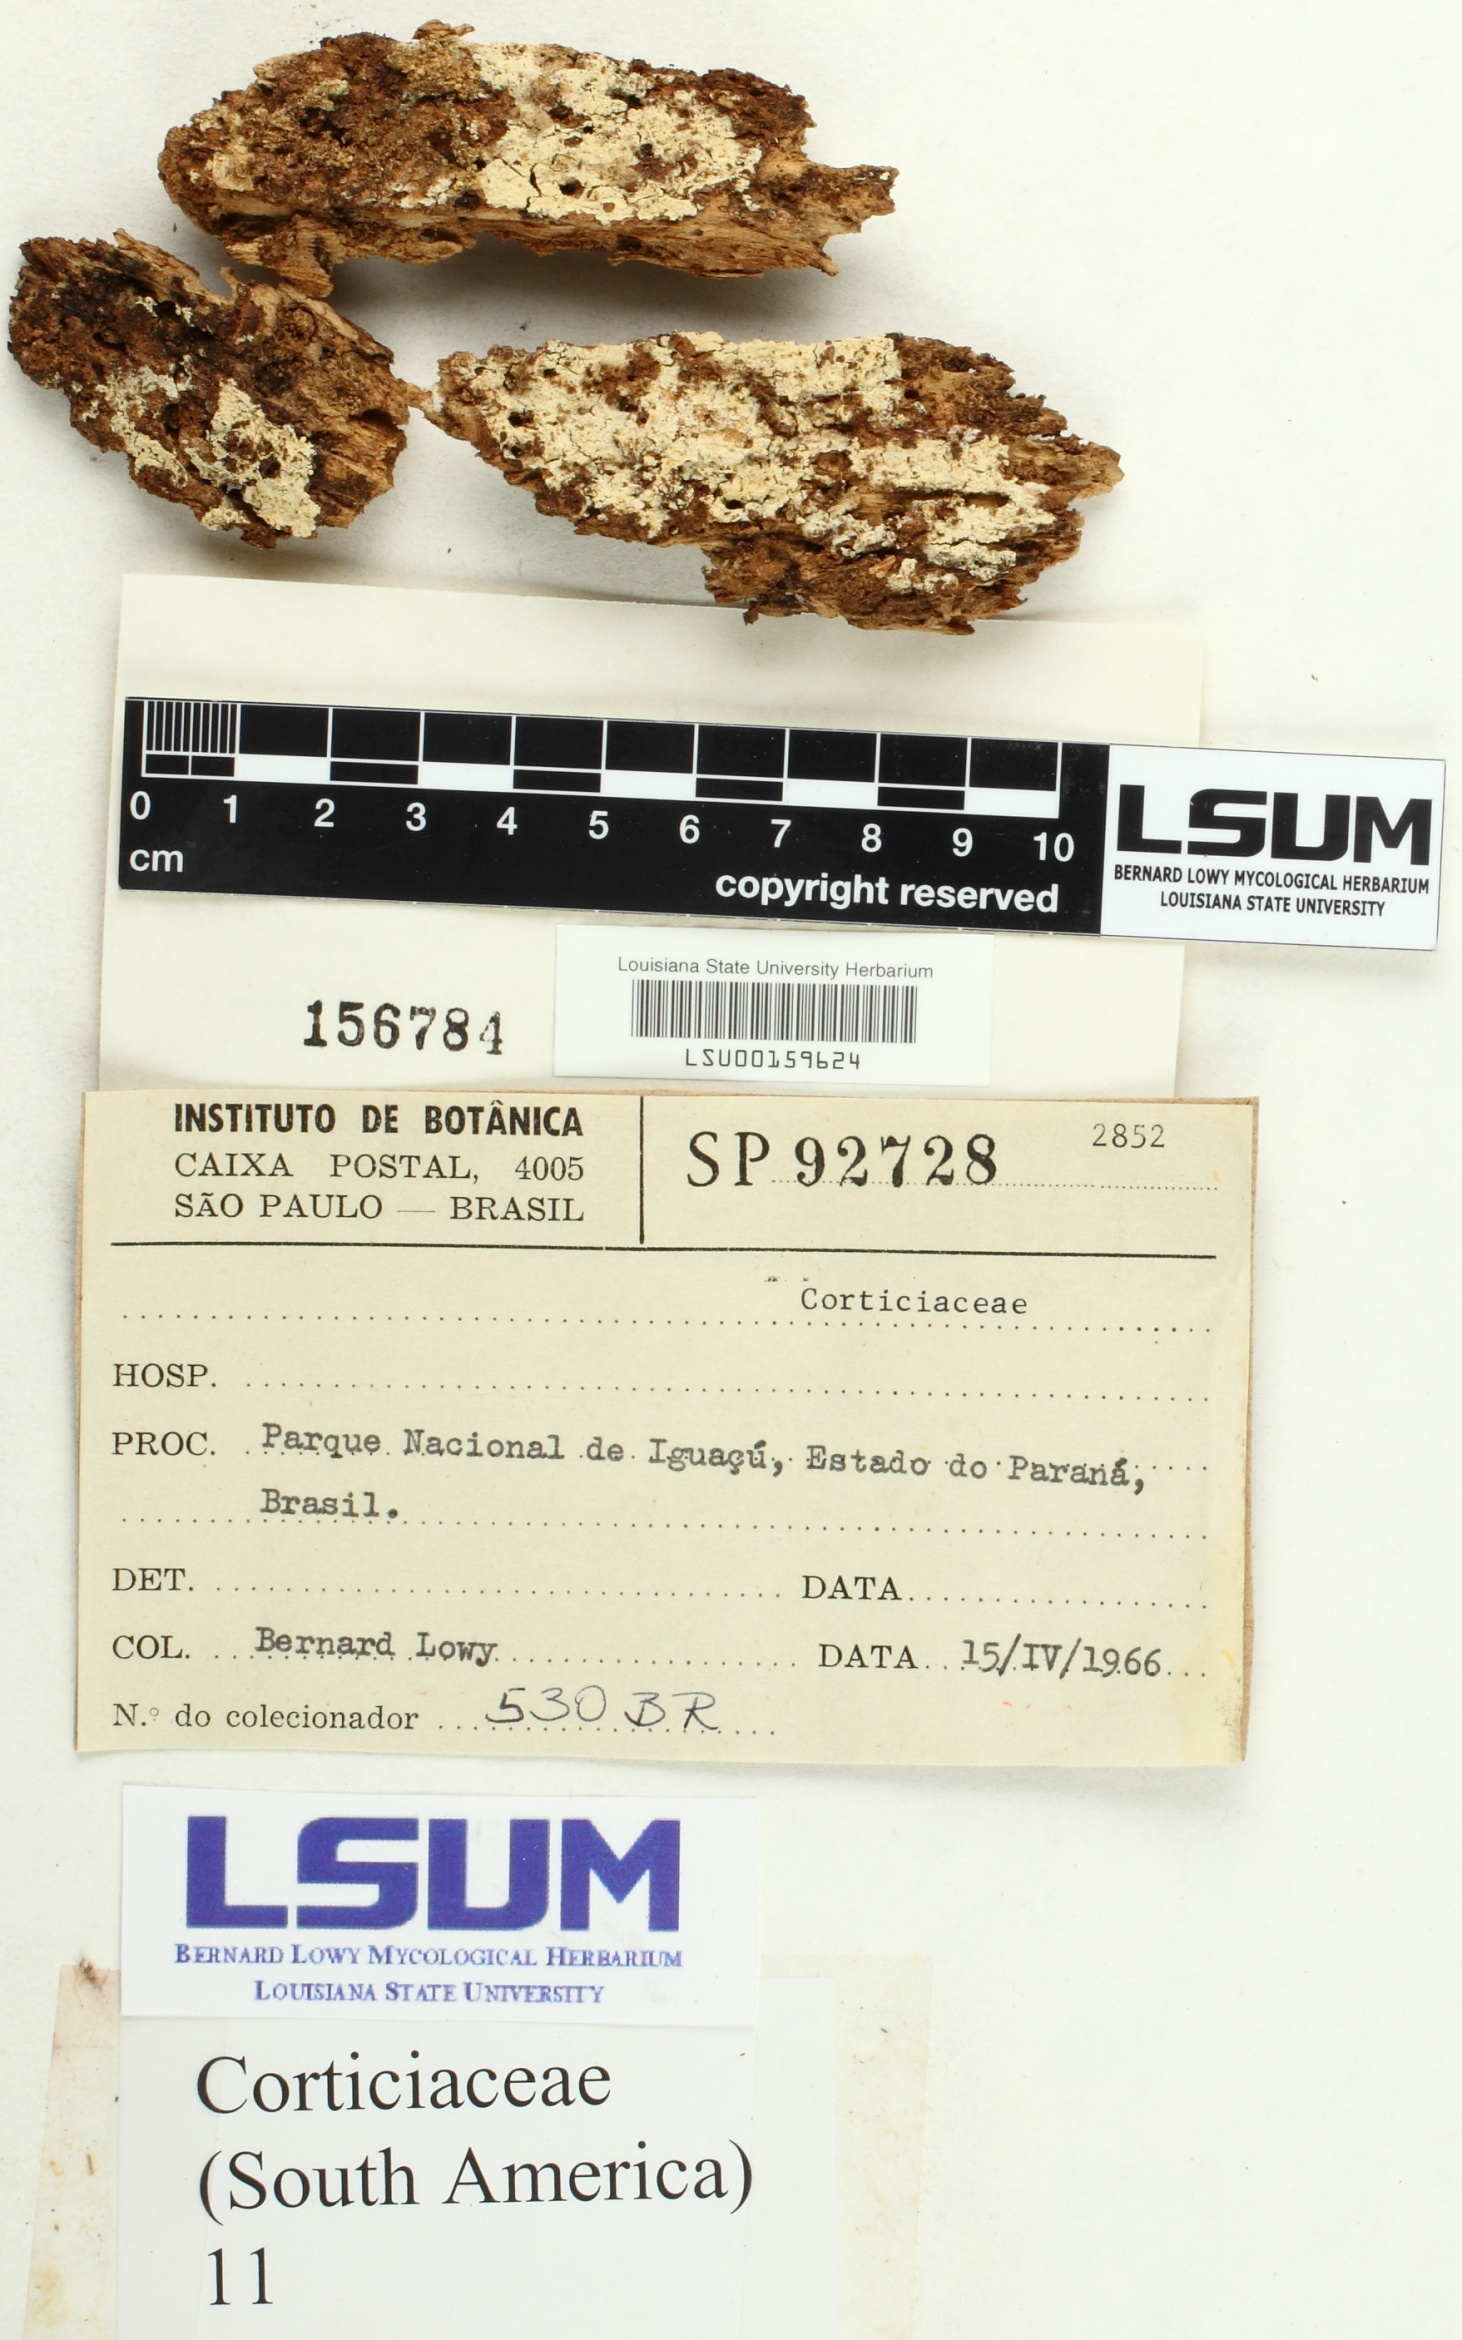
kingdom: Fungi
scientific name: Fungi
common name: Fungi
